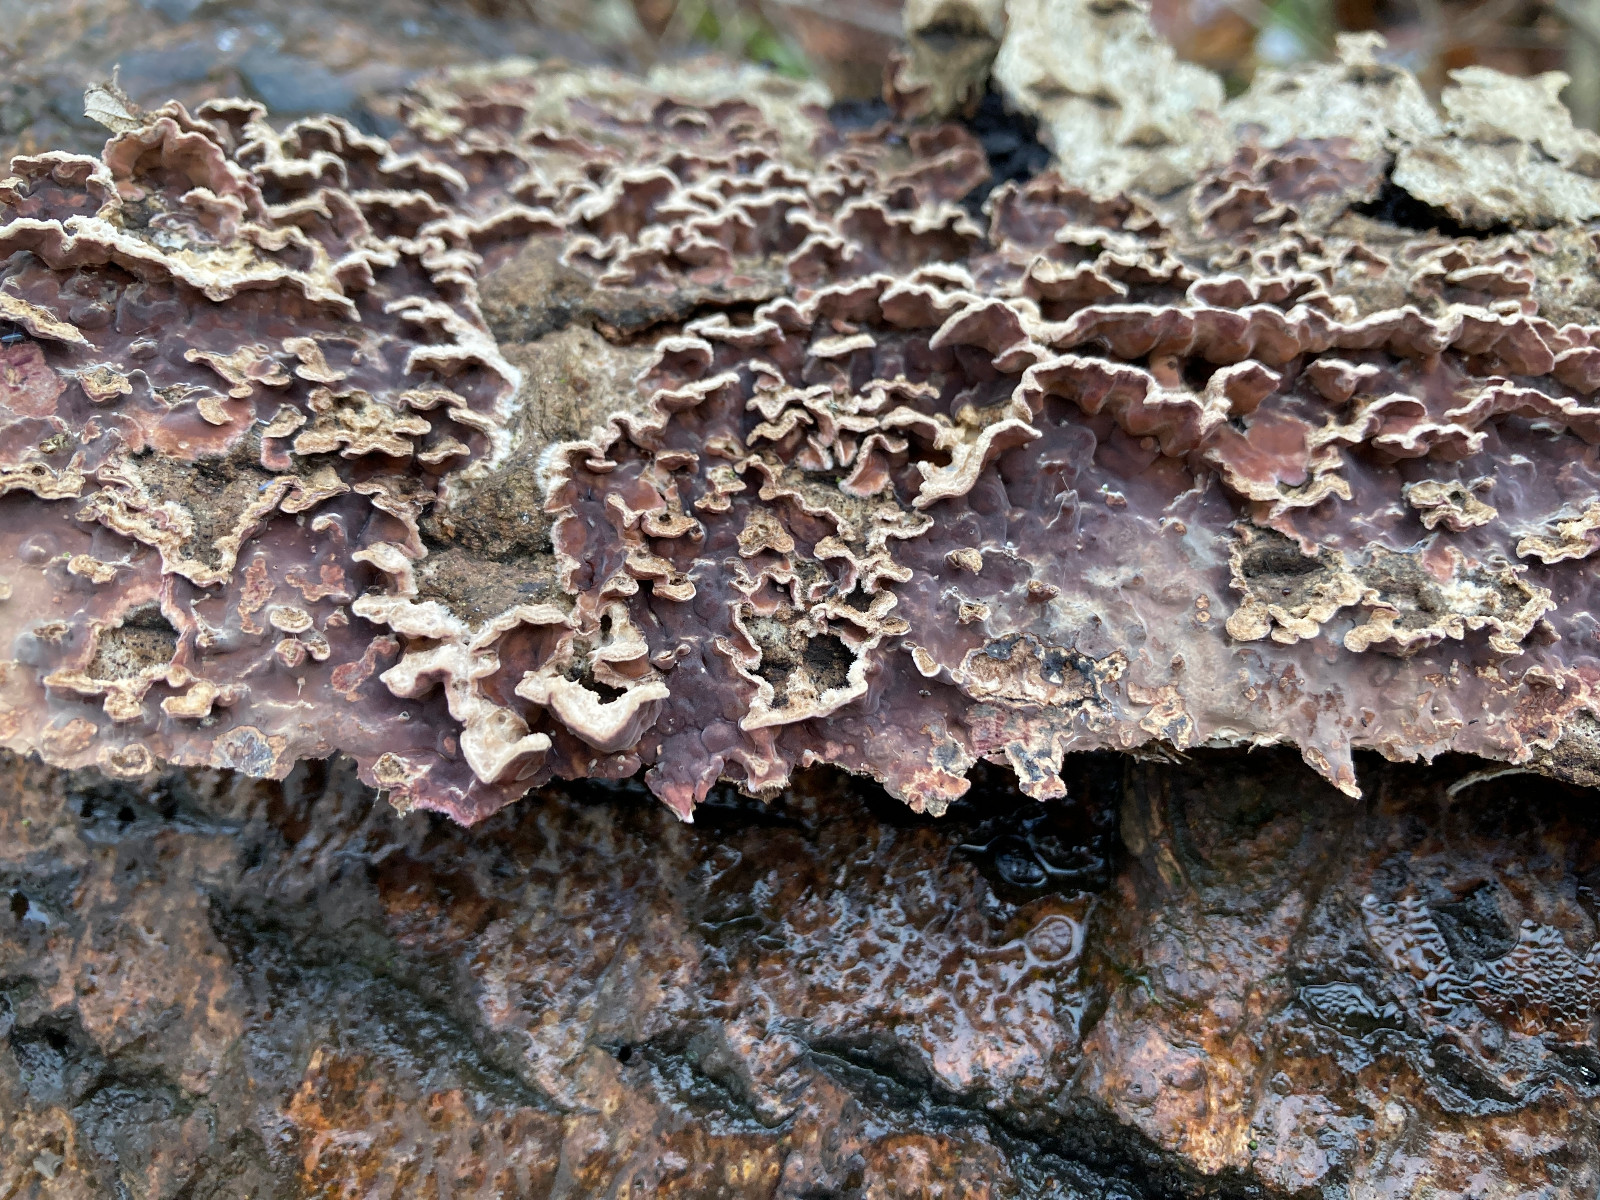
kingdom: Fungi
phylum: Basidiomycota
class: Agaricomycetes
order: Agaricales
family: Cyphellaceae
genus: Chondrostereum
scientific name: Chondrostereum purpureum
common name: purpurlædersvamp
